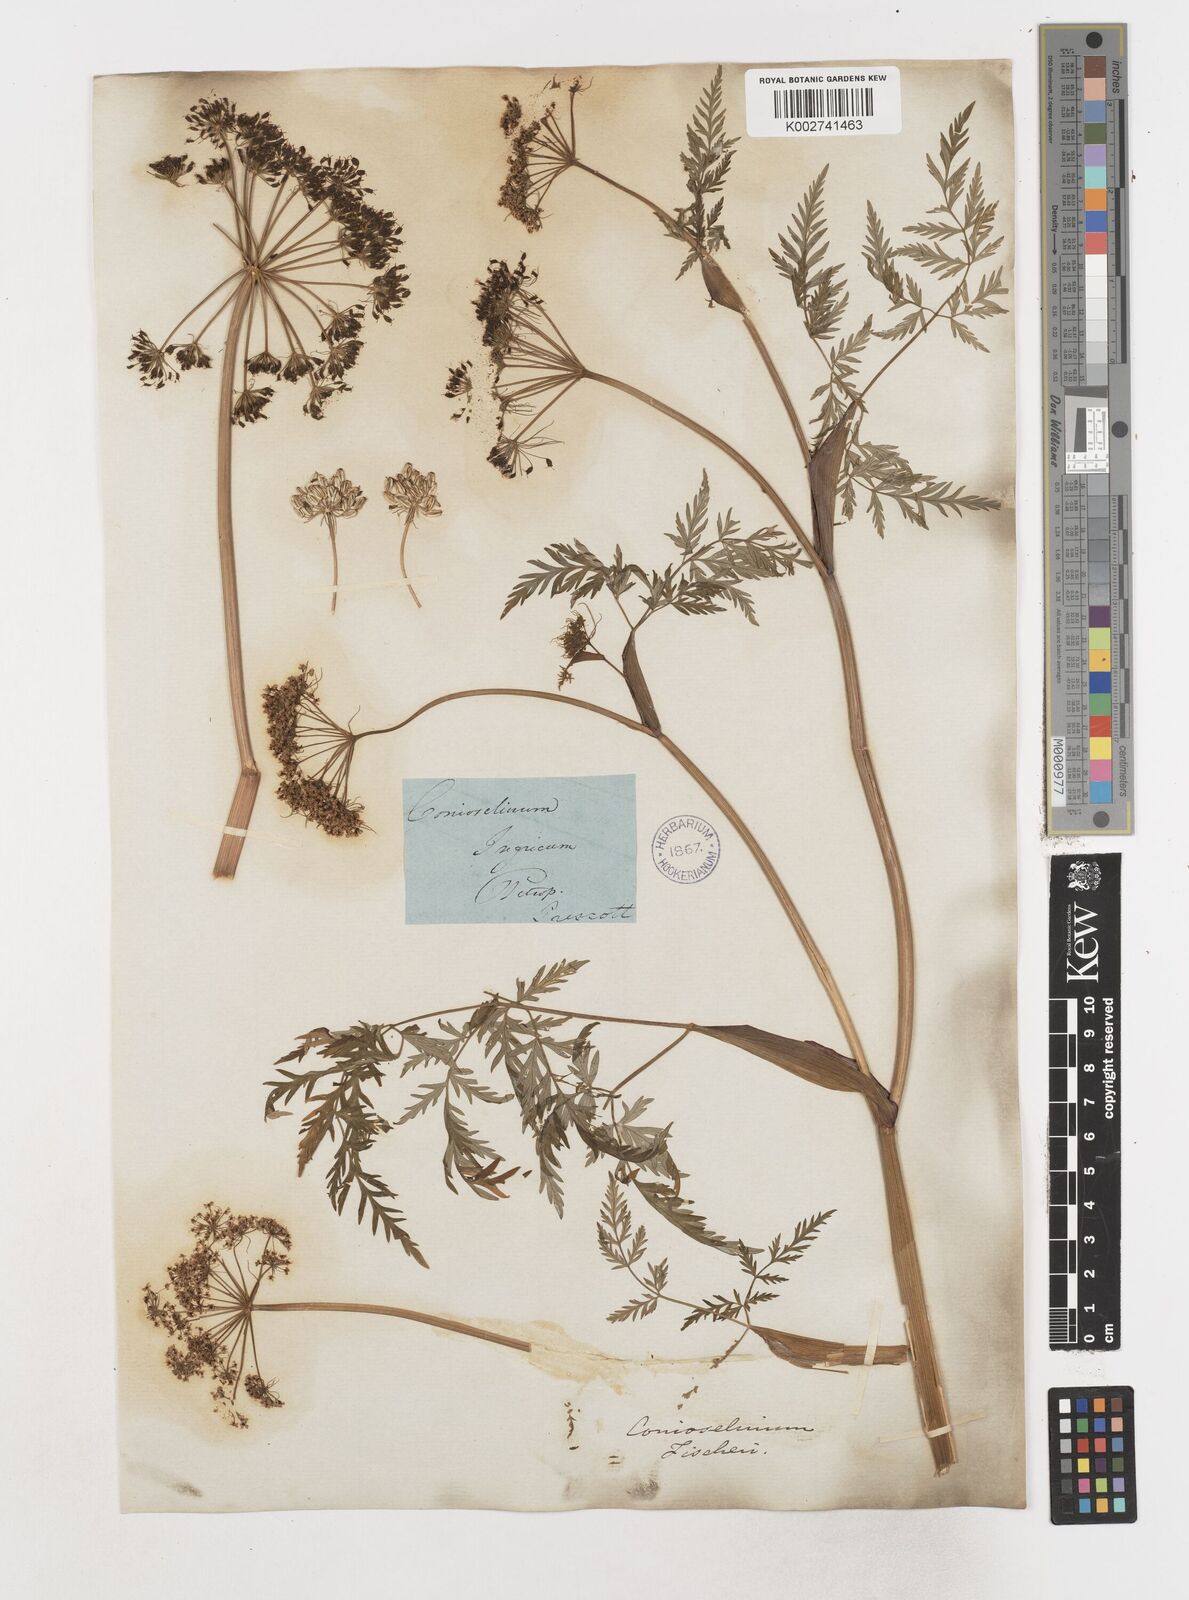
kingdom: Plantae
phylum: Tracheophyta
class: Magnoliopsida
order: Apiales
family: Apiaceae
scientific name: Apiaceae
